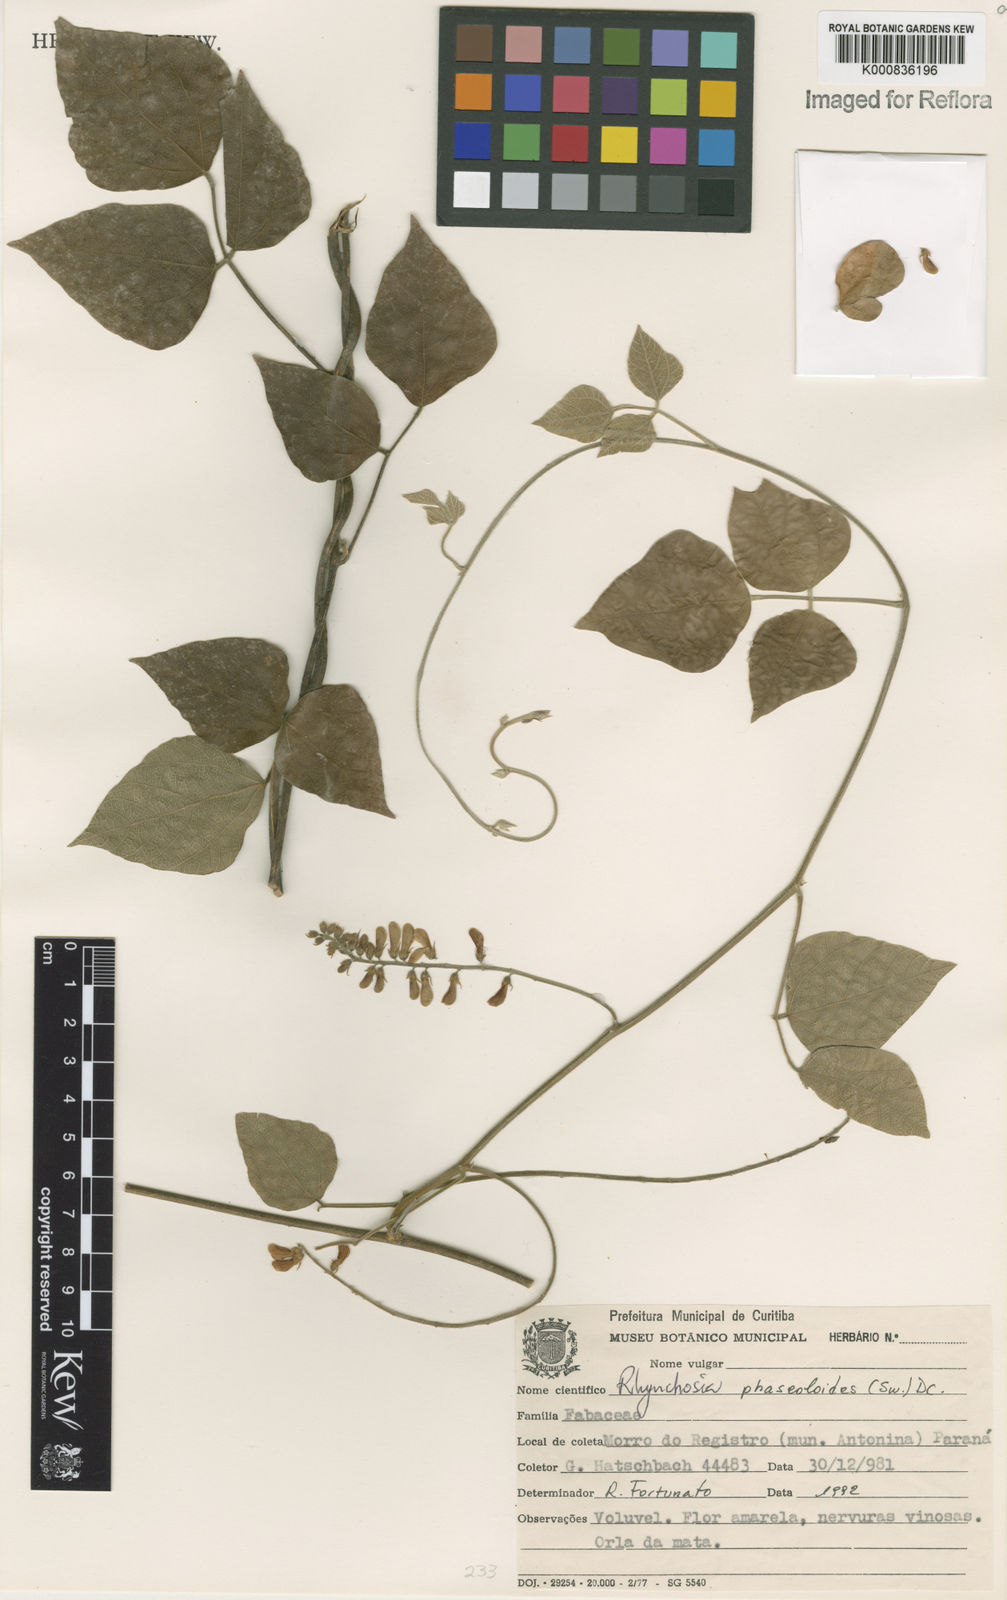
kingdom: Plantae
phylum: Tracheophyta
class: Magnoliopsida
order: Fabales
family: Fabaceae
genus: Rhynchosia
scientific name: Rhynchosia phaseoloides
